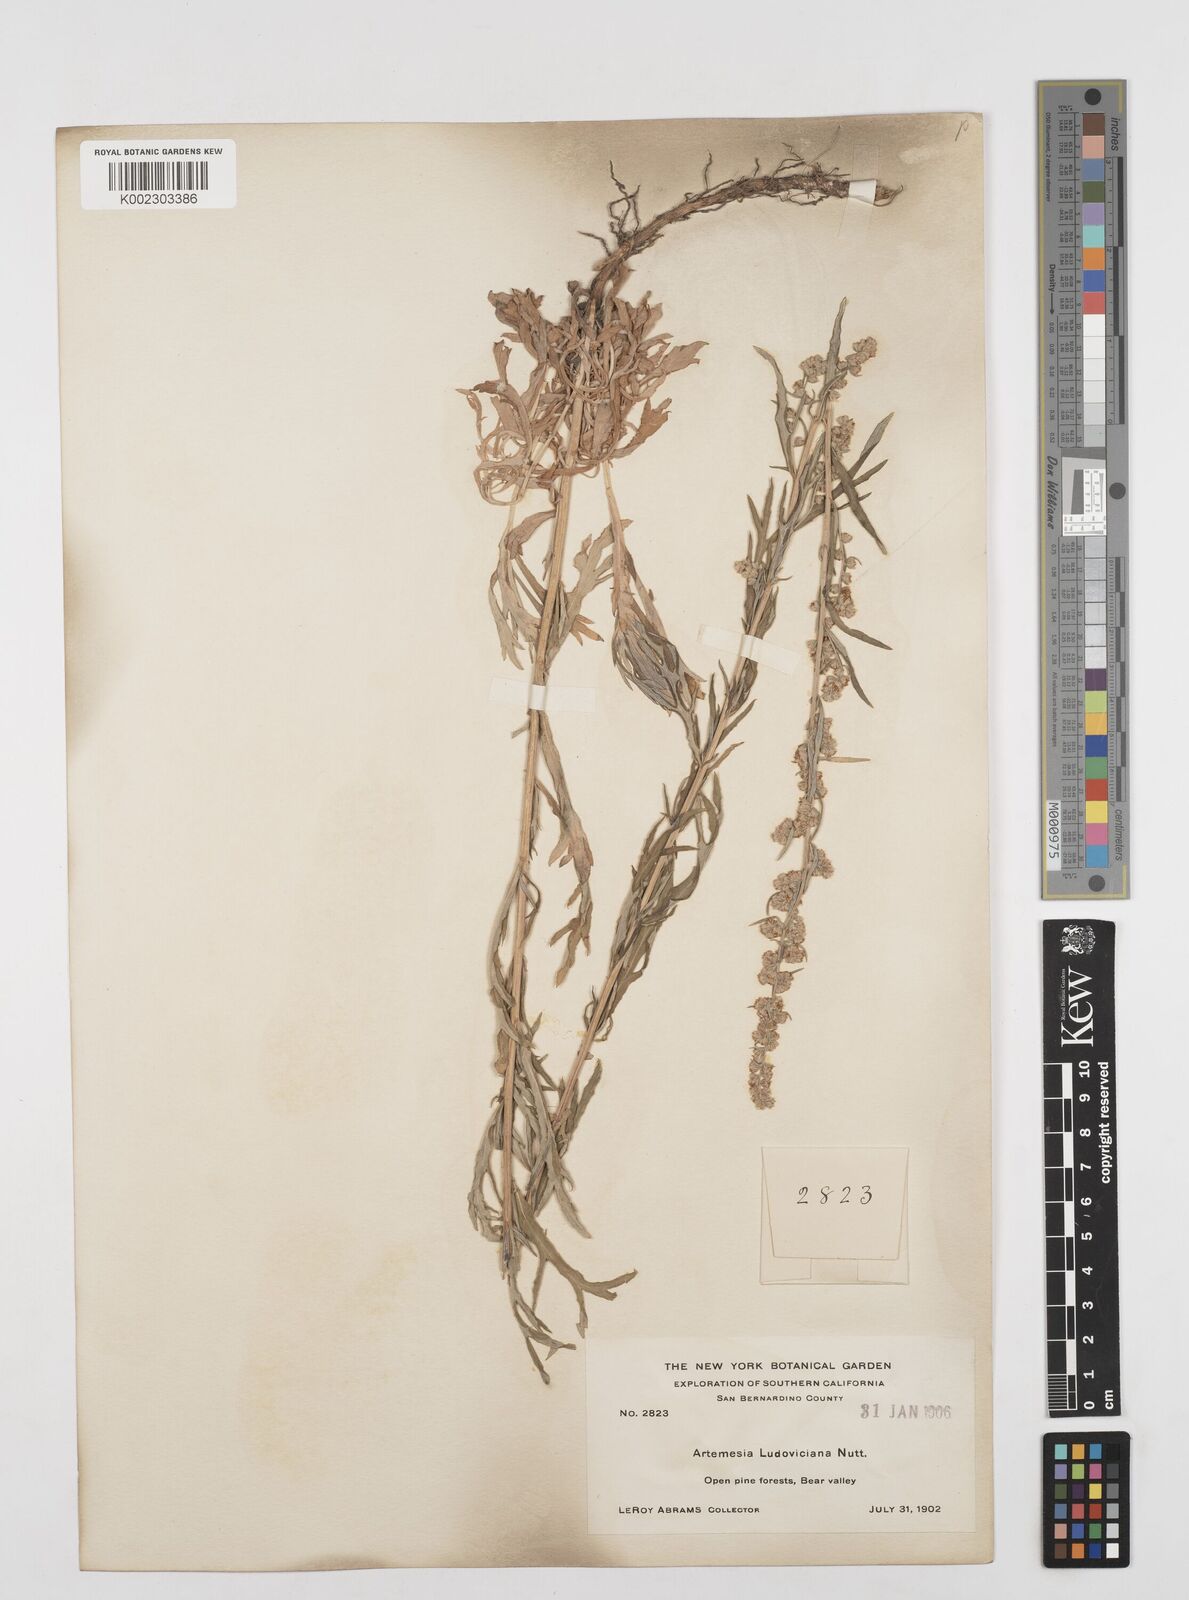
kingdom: Plantae
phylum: Tracheophyta
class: Magnoliopsida
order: Asterales
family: Asteraceae
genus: Artemisia
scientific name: Artemisia
